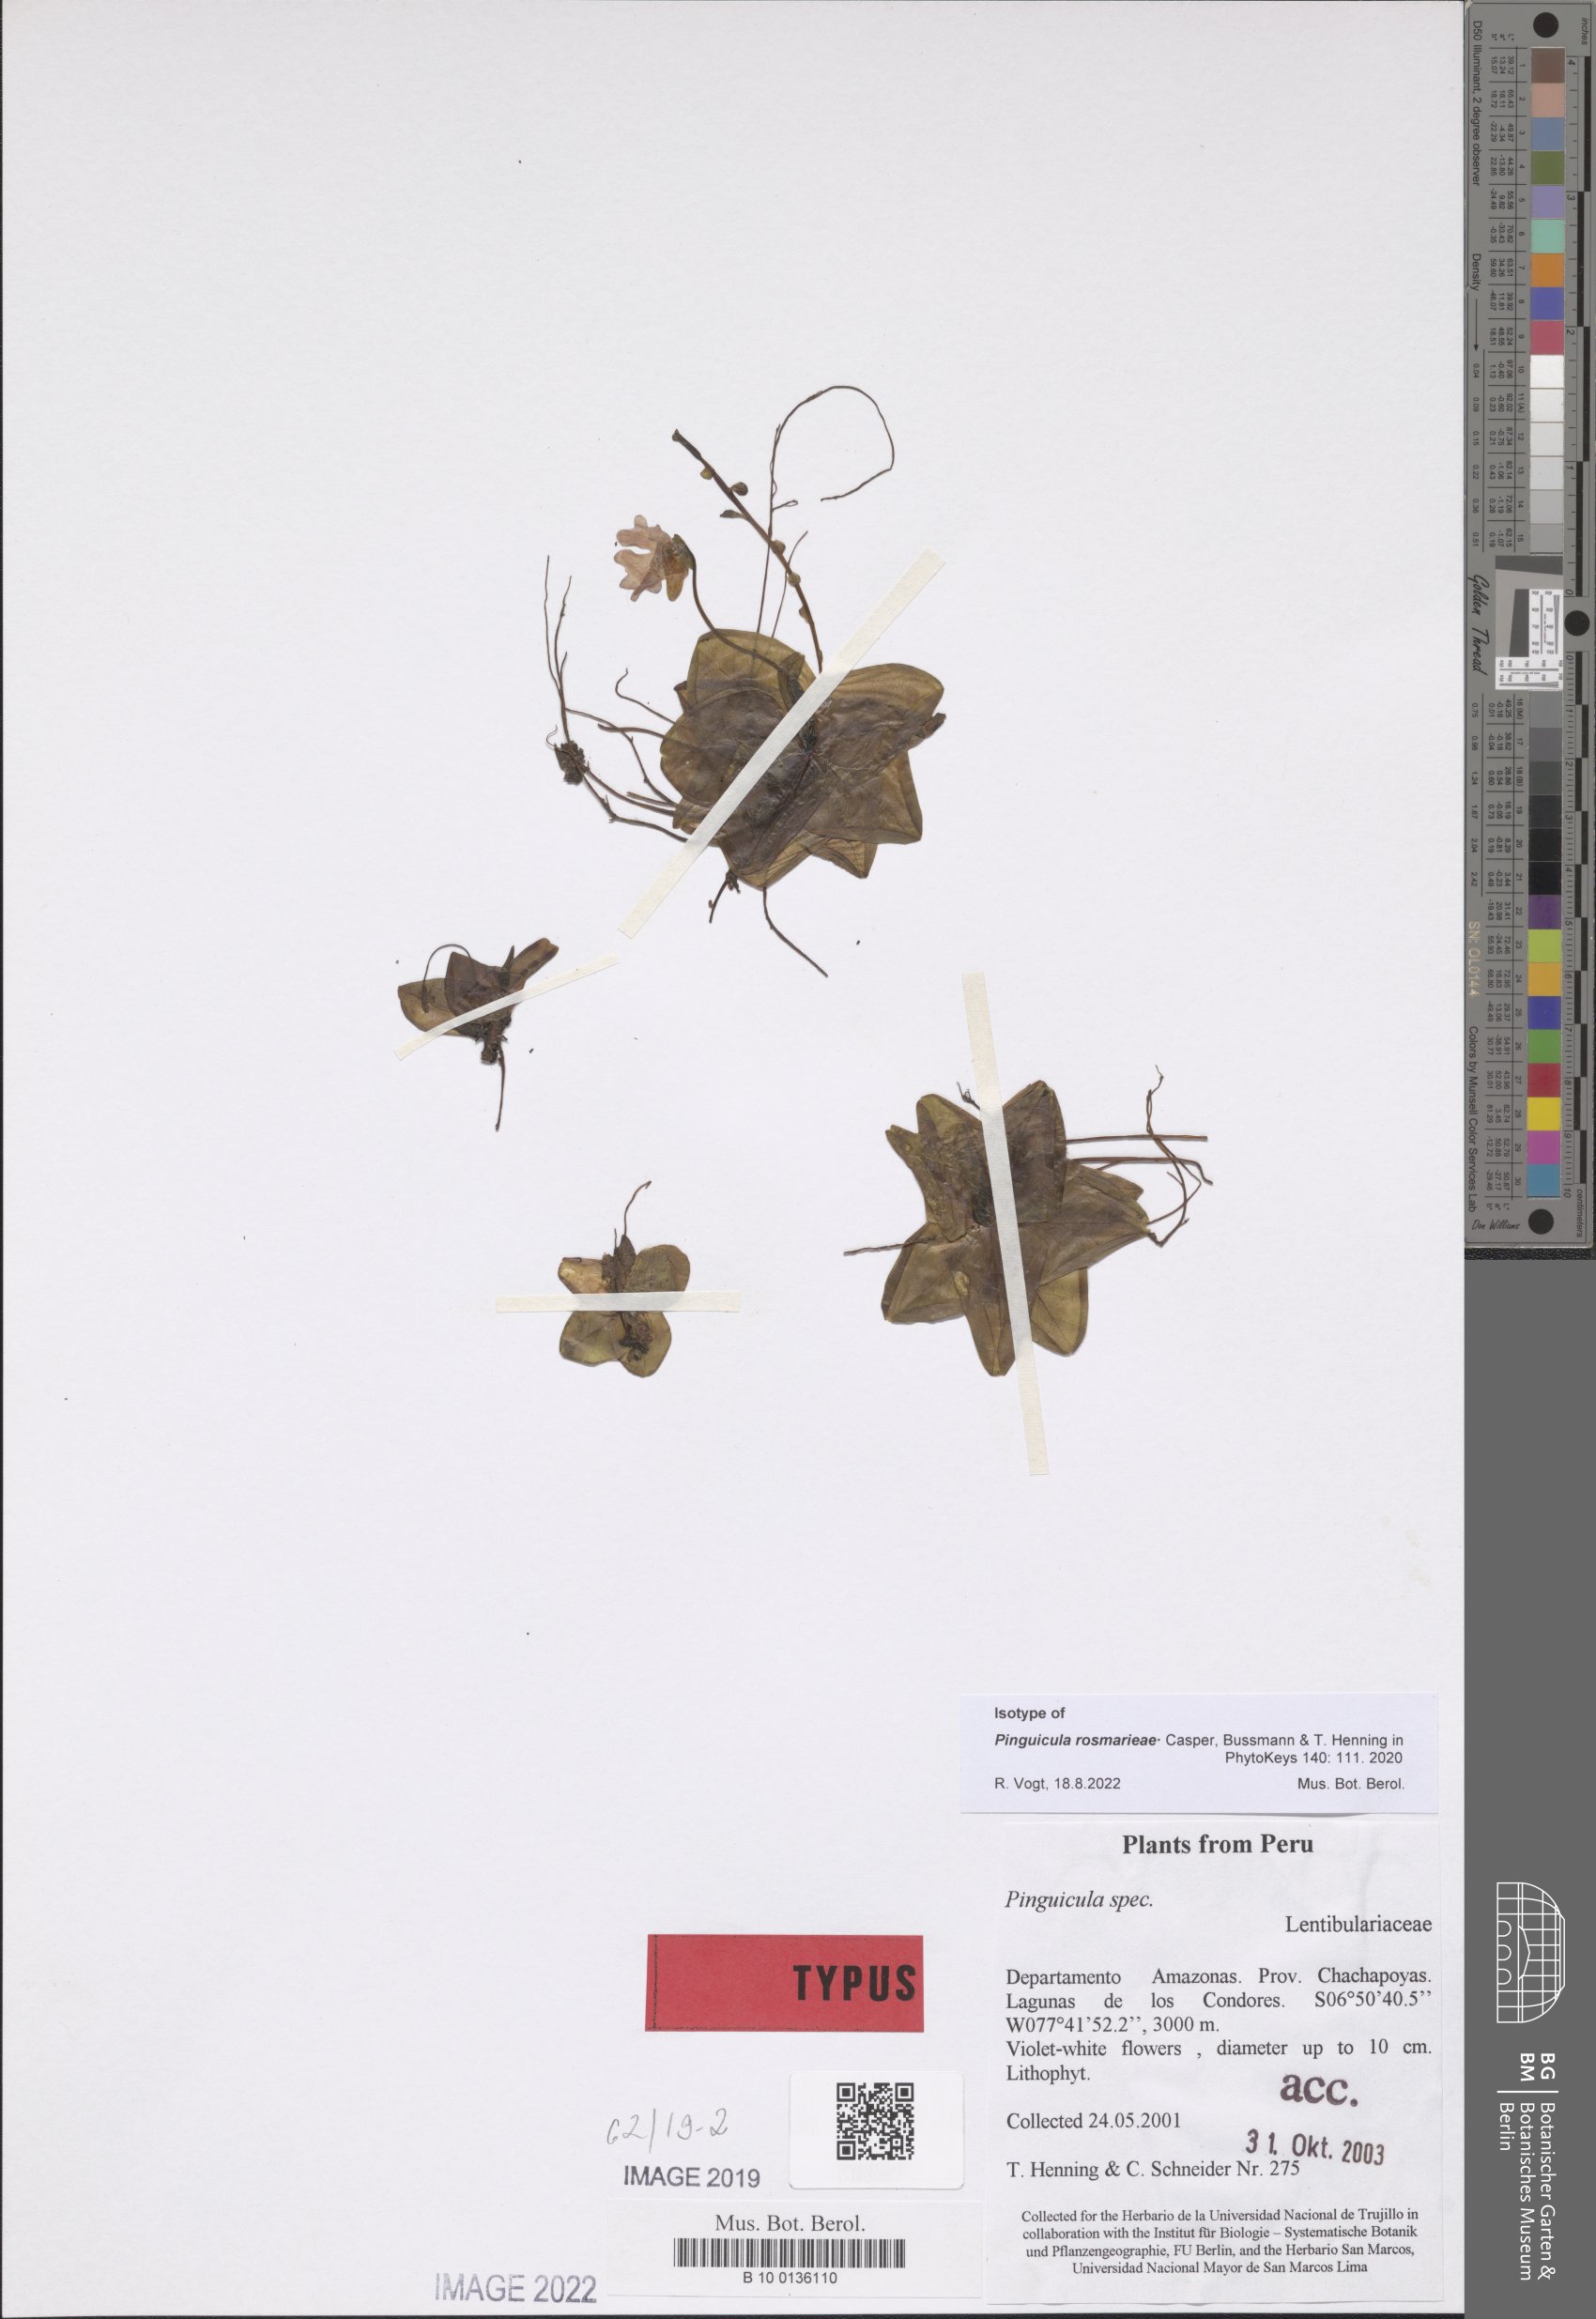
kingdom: Plantae
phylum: Tracheophyta
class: Magnoliopsida
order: Lamiales
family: Lentibulariaceae
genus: Pinguicula
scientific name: Pinguicula rosmarieae
